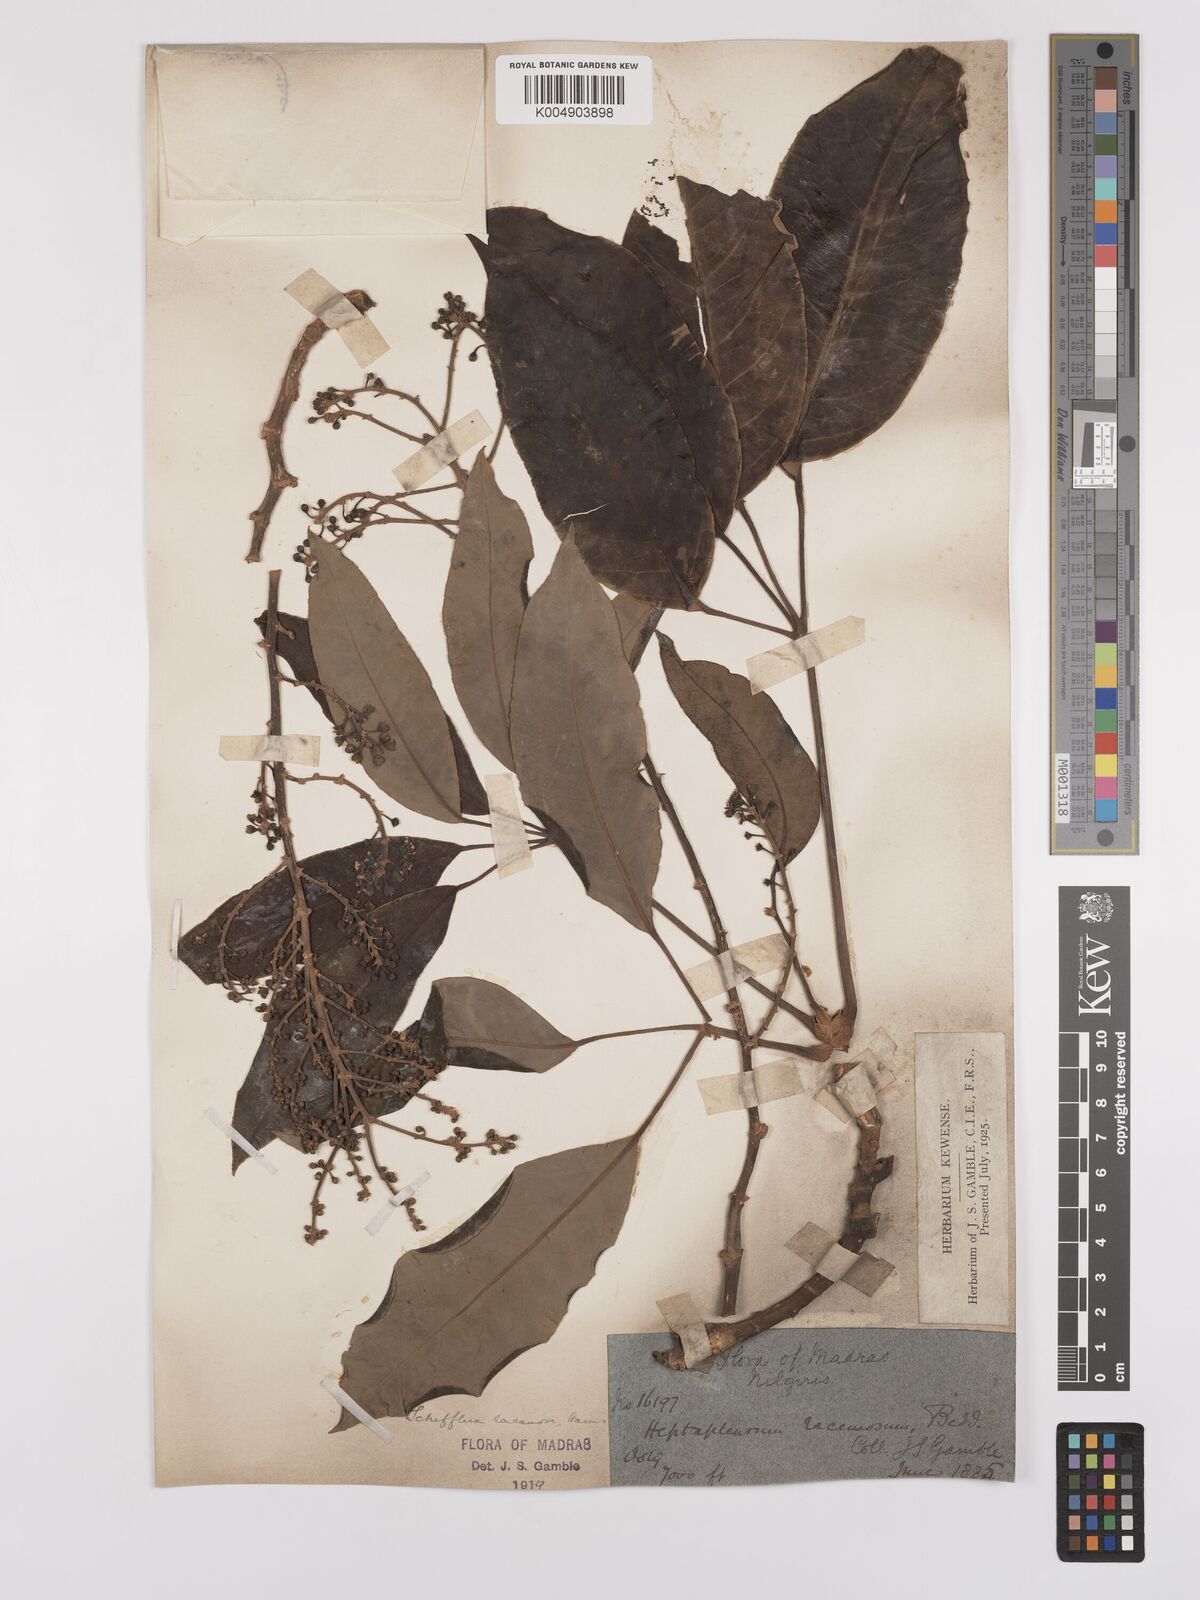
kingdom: Plantae
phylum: Tracheophyta
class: Magnoliopsida
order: Apiales
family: Araliaceae
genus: Heptapleurum
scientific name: Heptapleurum
